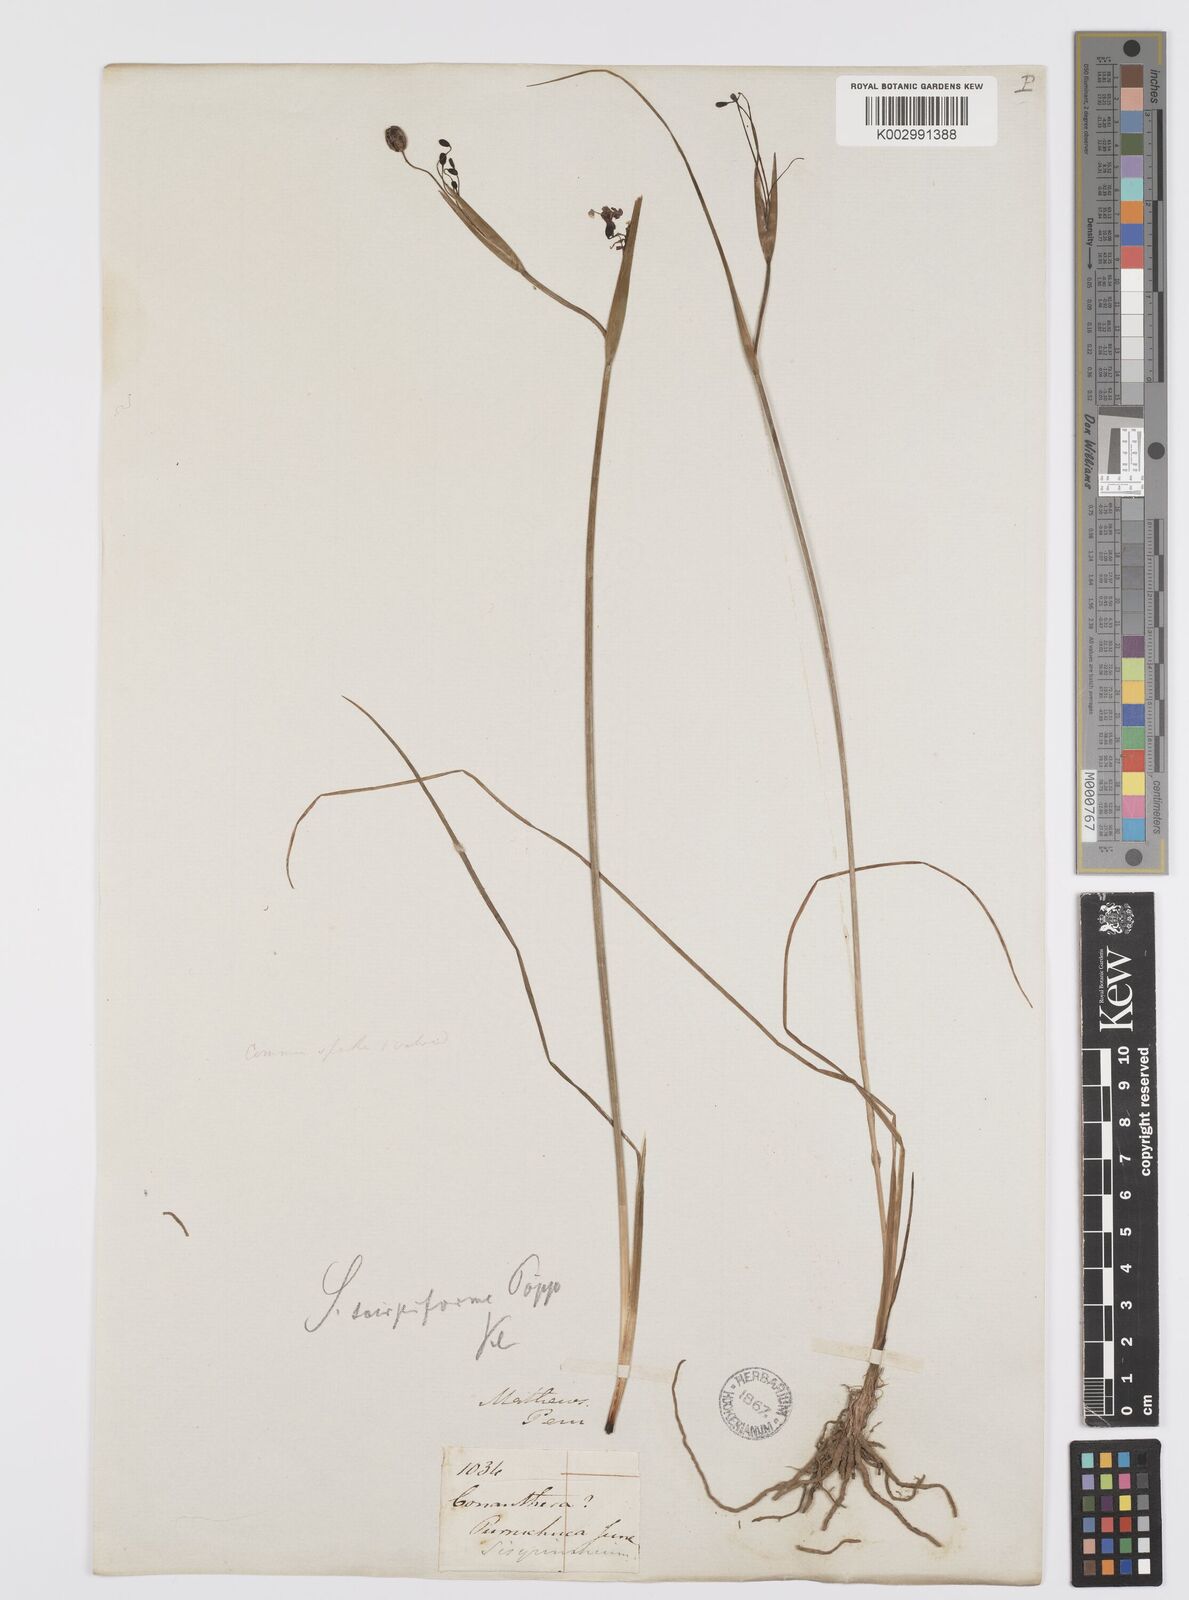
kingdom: Plantae
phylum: Tracheophyta
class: Liliopsida
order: Asparagales
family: Iridaceae
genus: Olsynium
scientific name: Olsynium junceum
